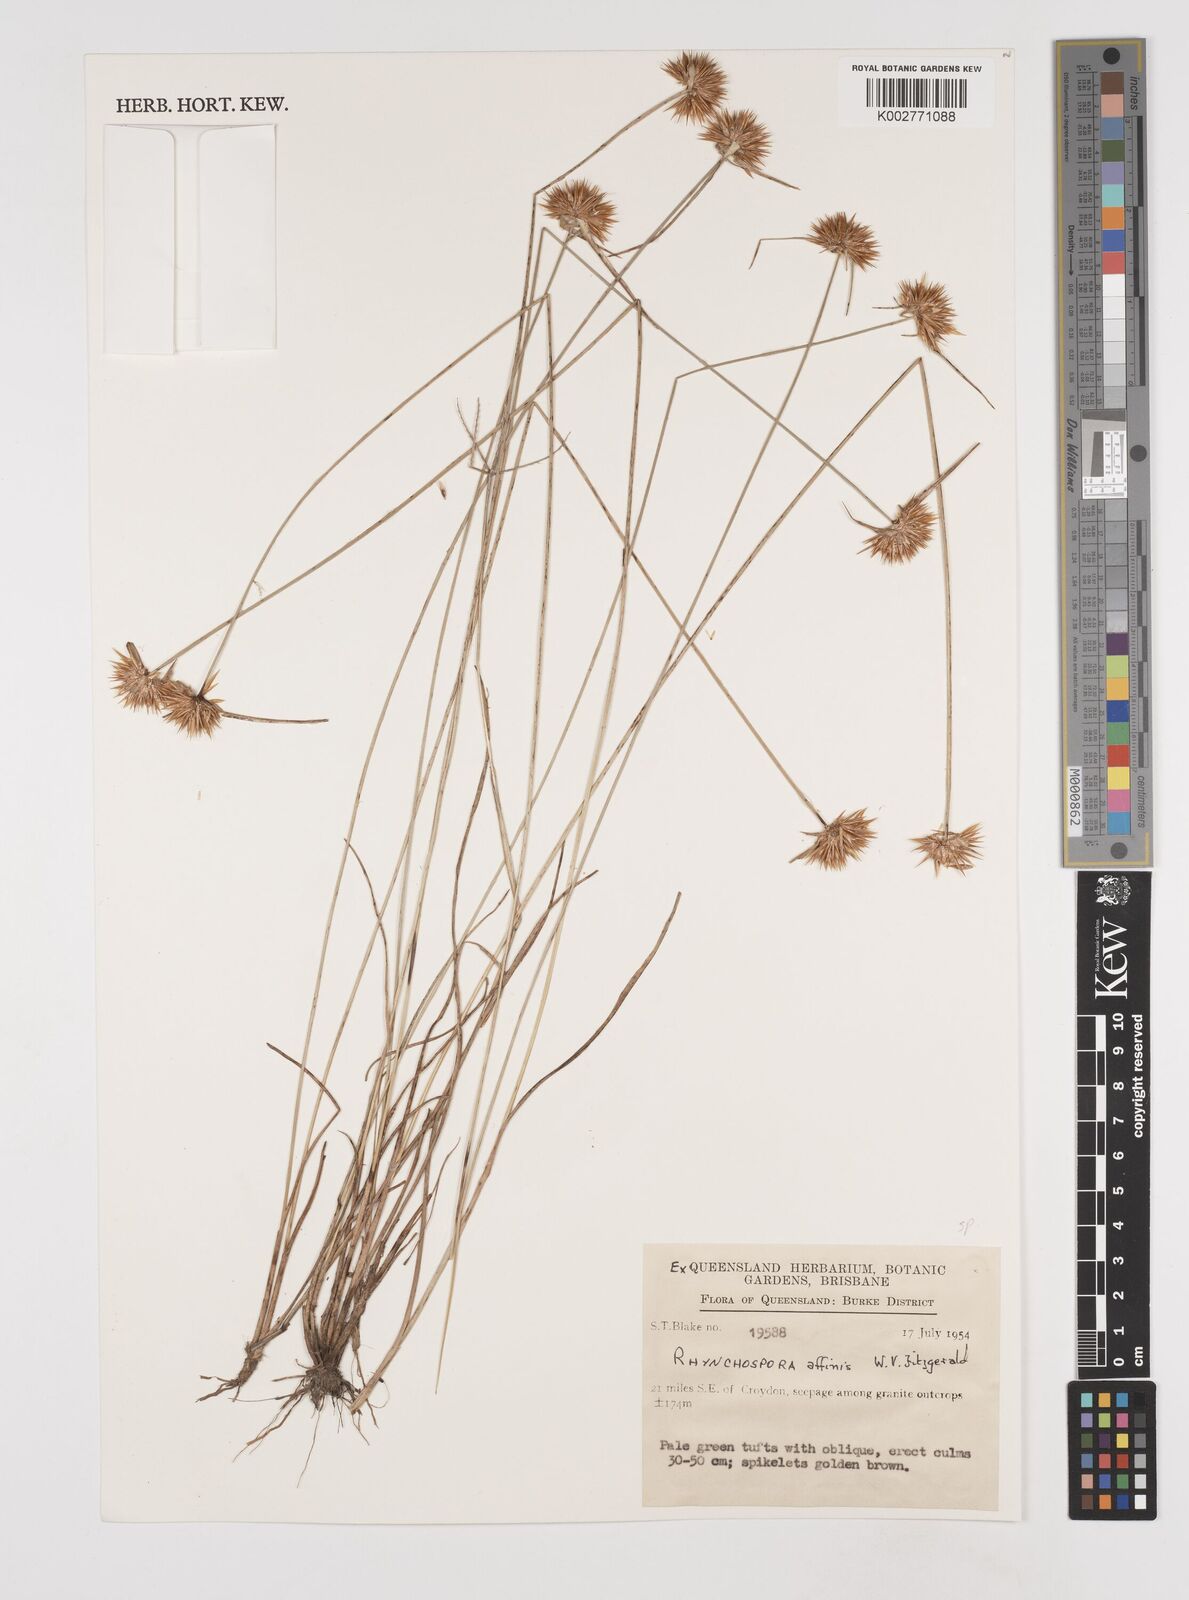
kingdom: Plantae
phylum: Tracheophyta
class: Liliopsida
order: Poales
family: Cyperaceae
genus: Rhynchospora
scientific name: Rhynchospora affinis
